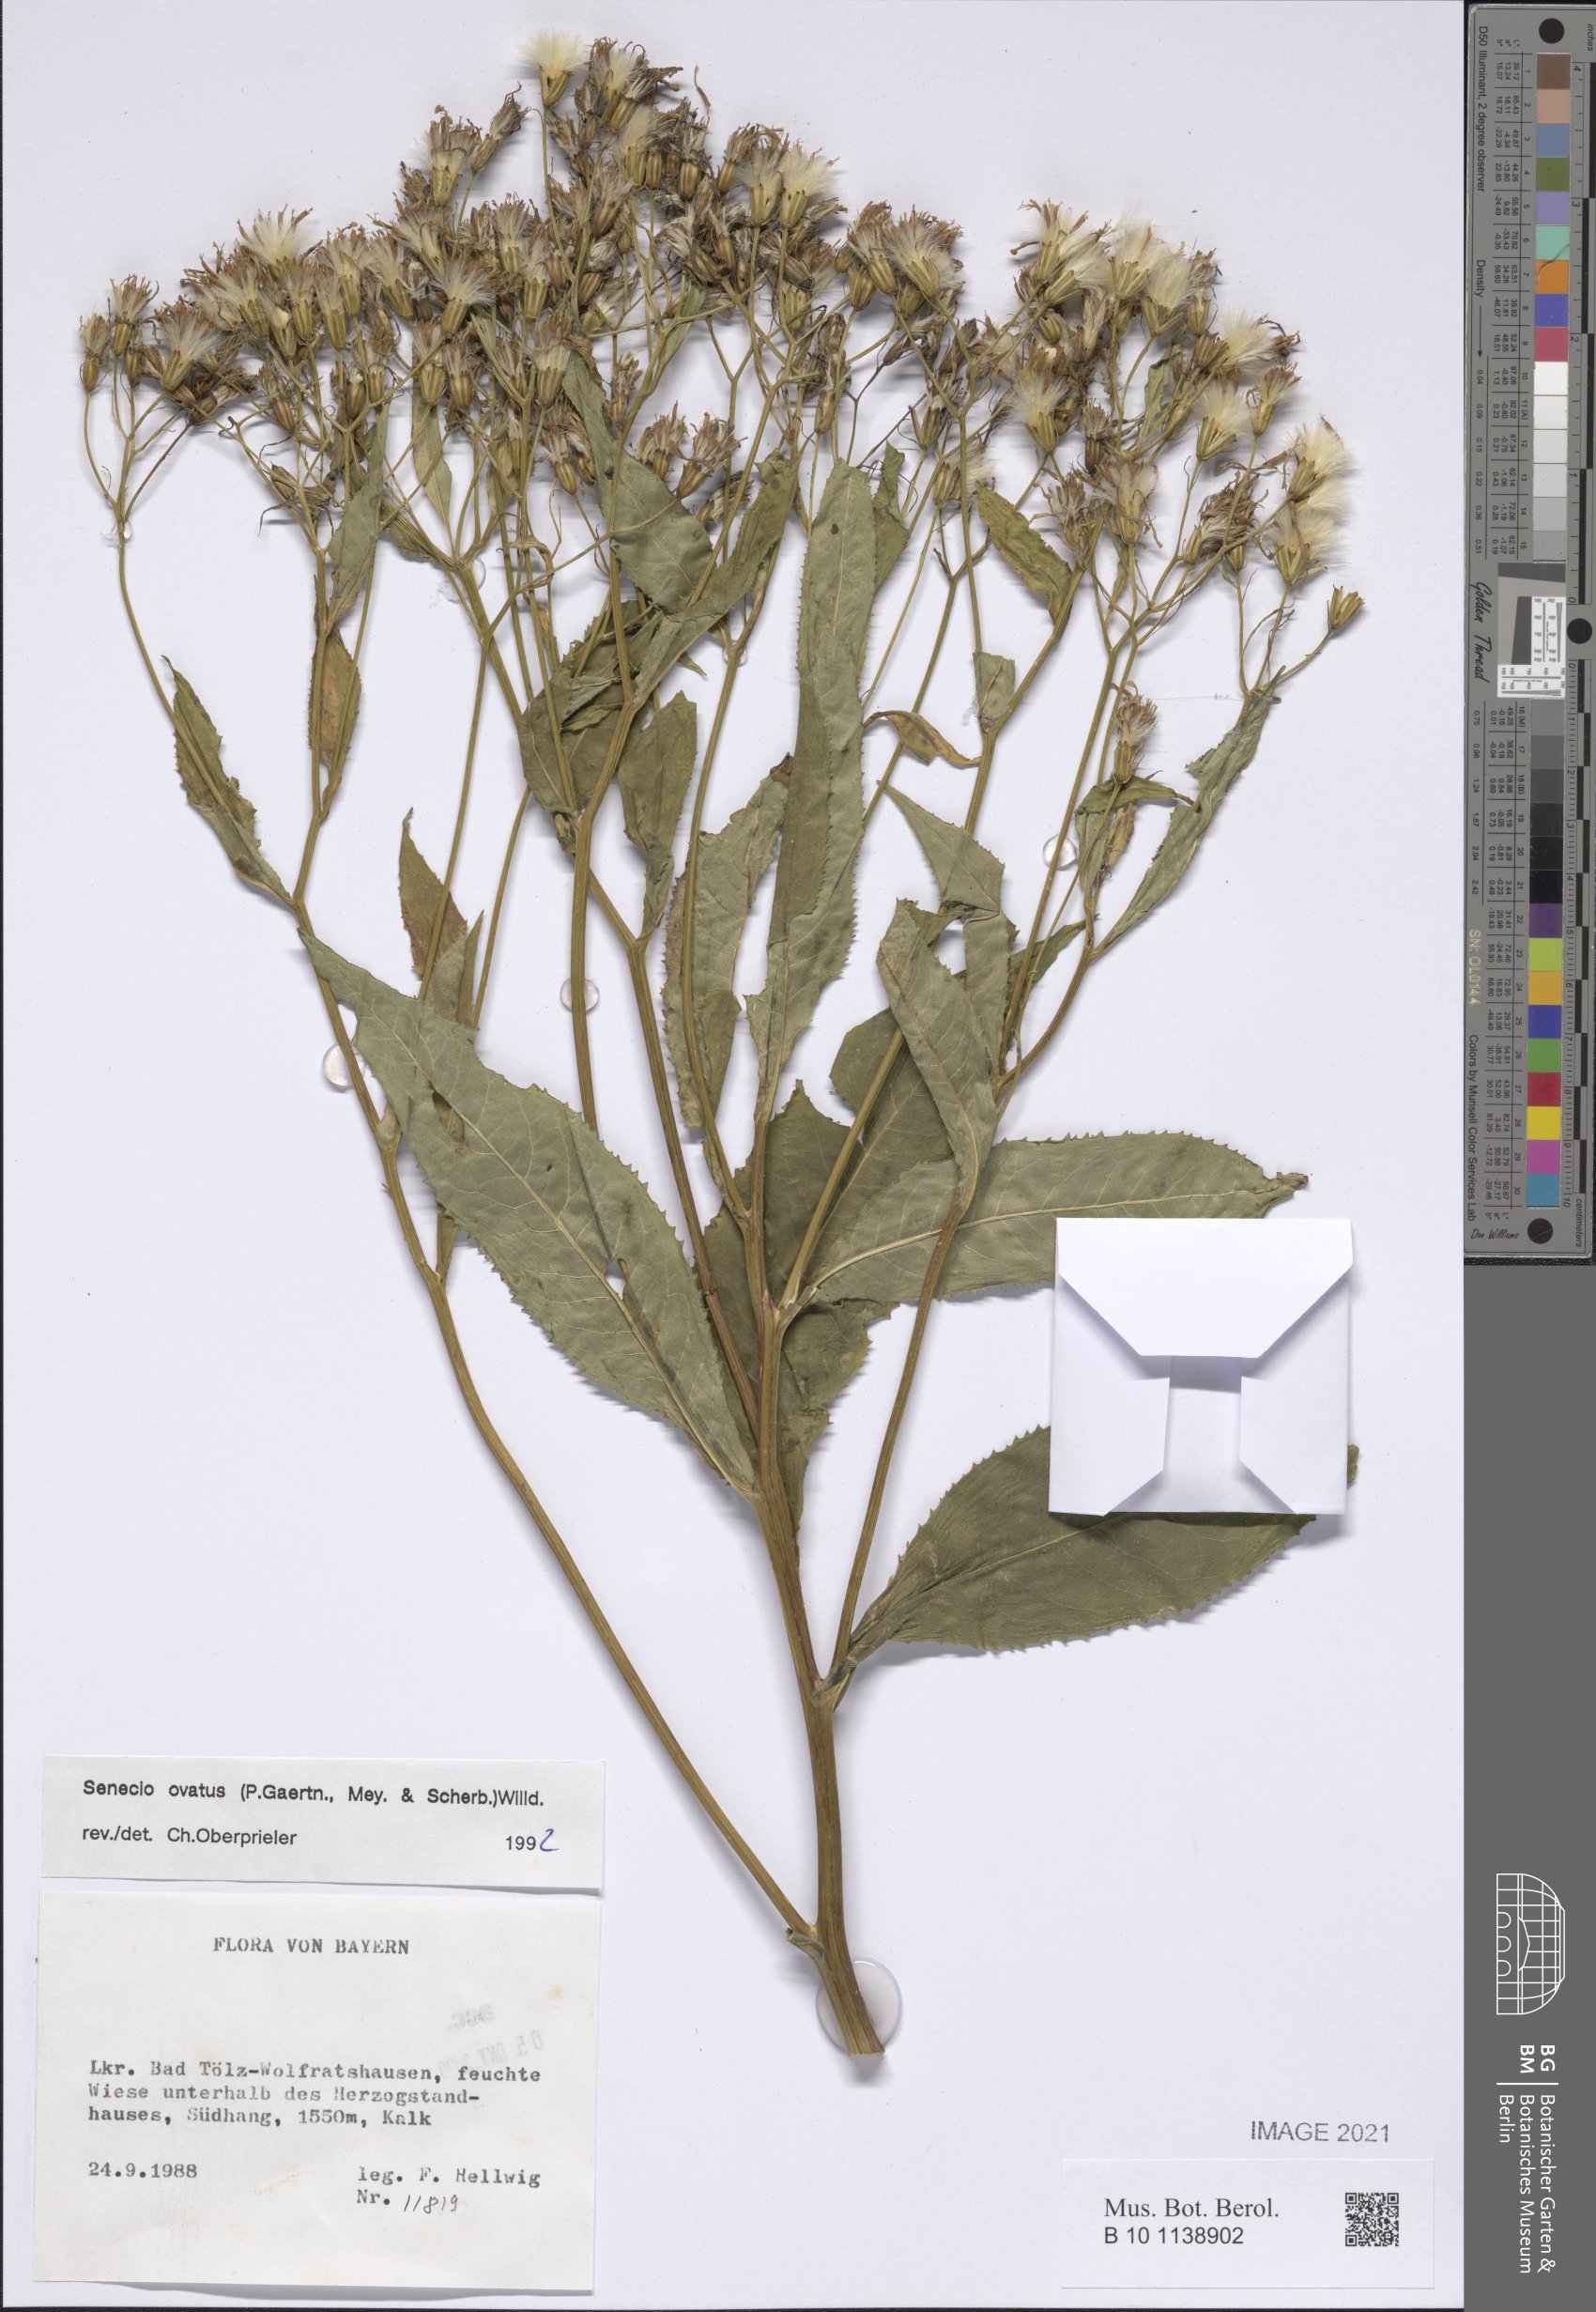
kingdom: Plantae
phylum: Tracheophyta
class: Magnoliopsida
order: Asterales
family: Asteraceae
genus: Senecio
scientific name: Senecio ovatus
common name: Wood ragwort
